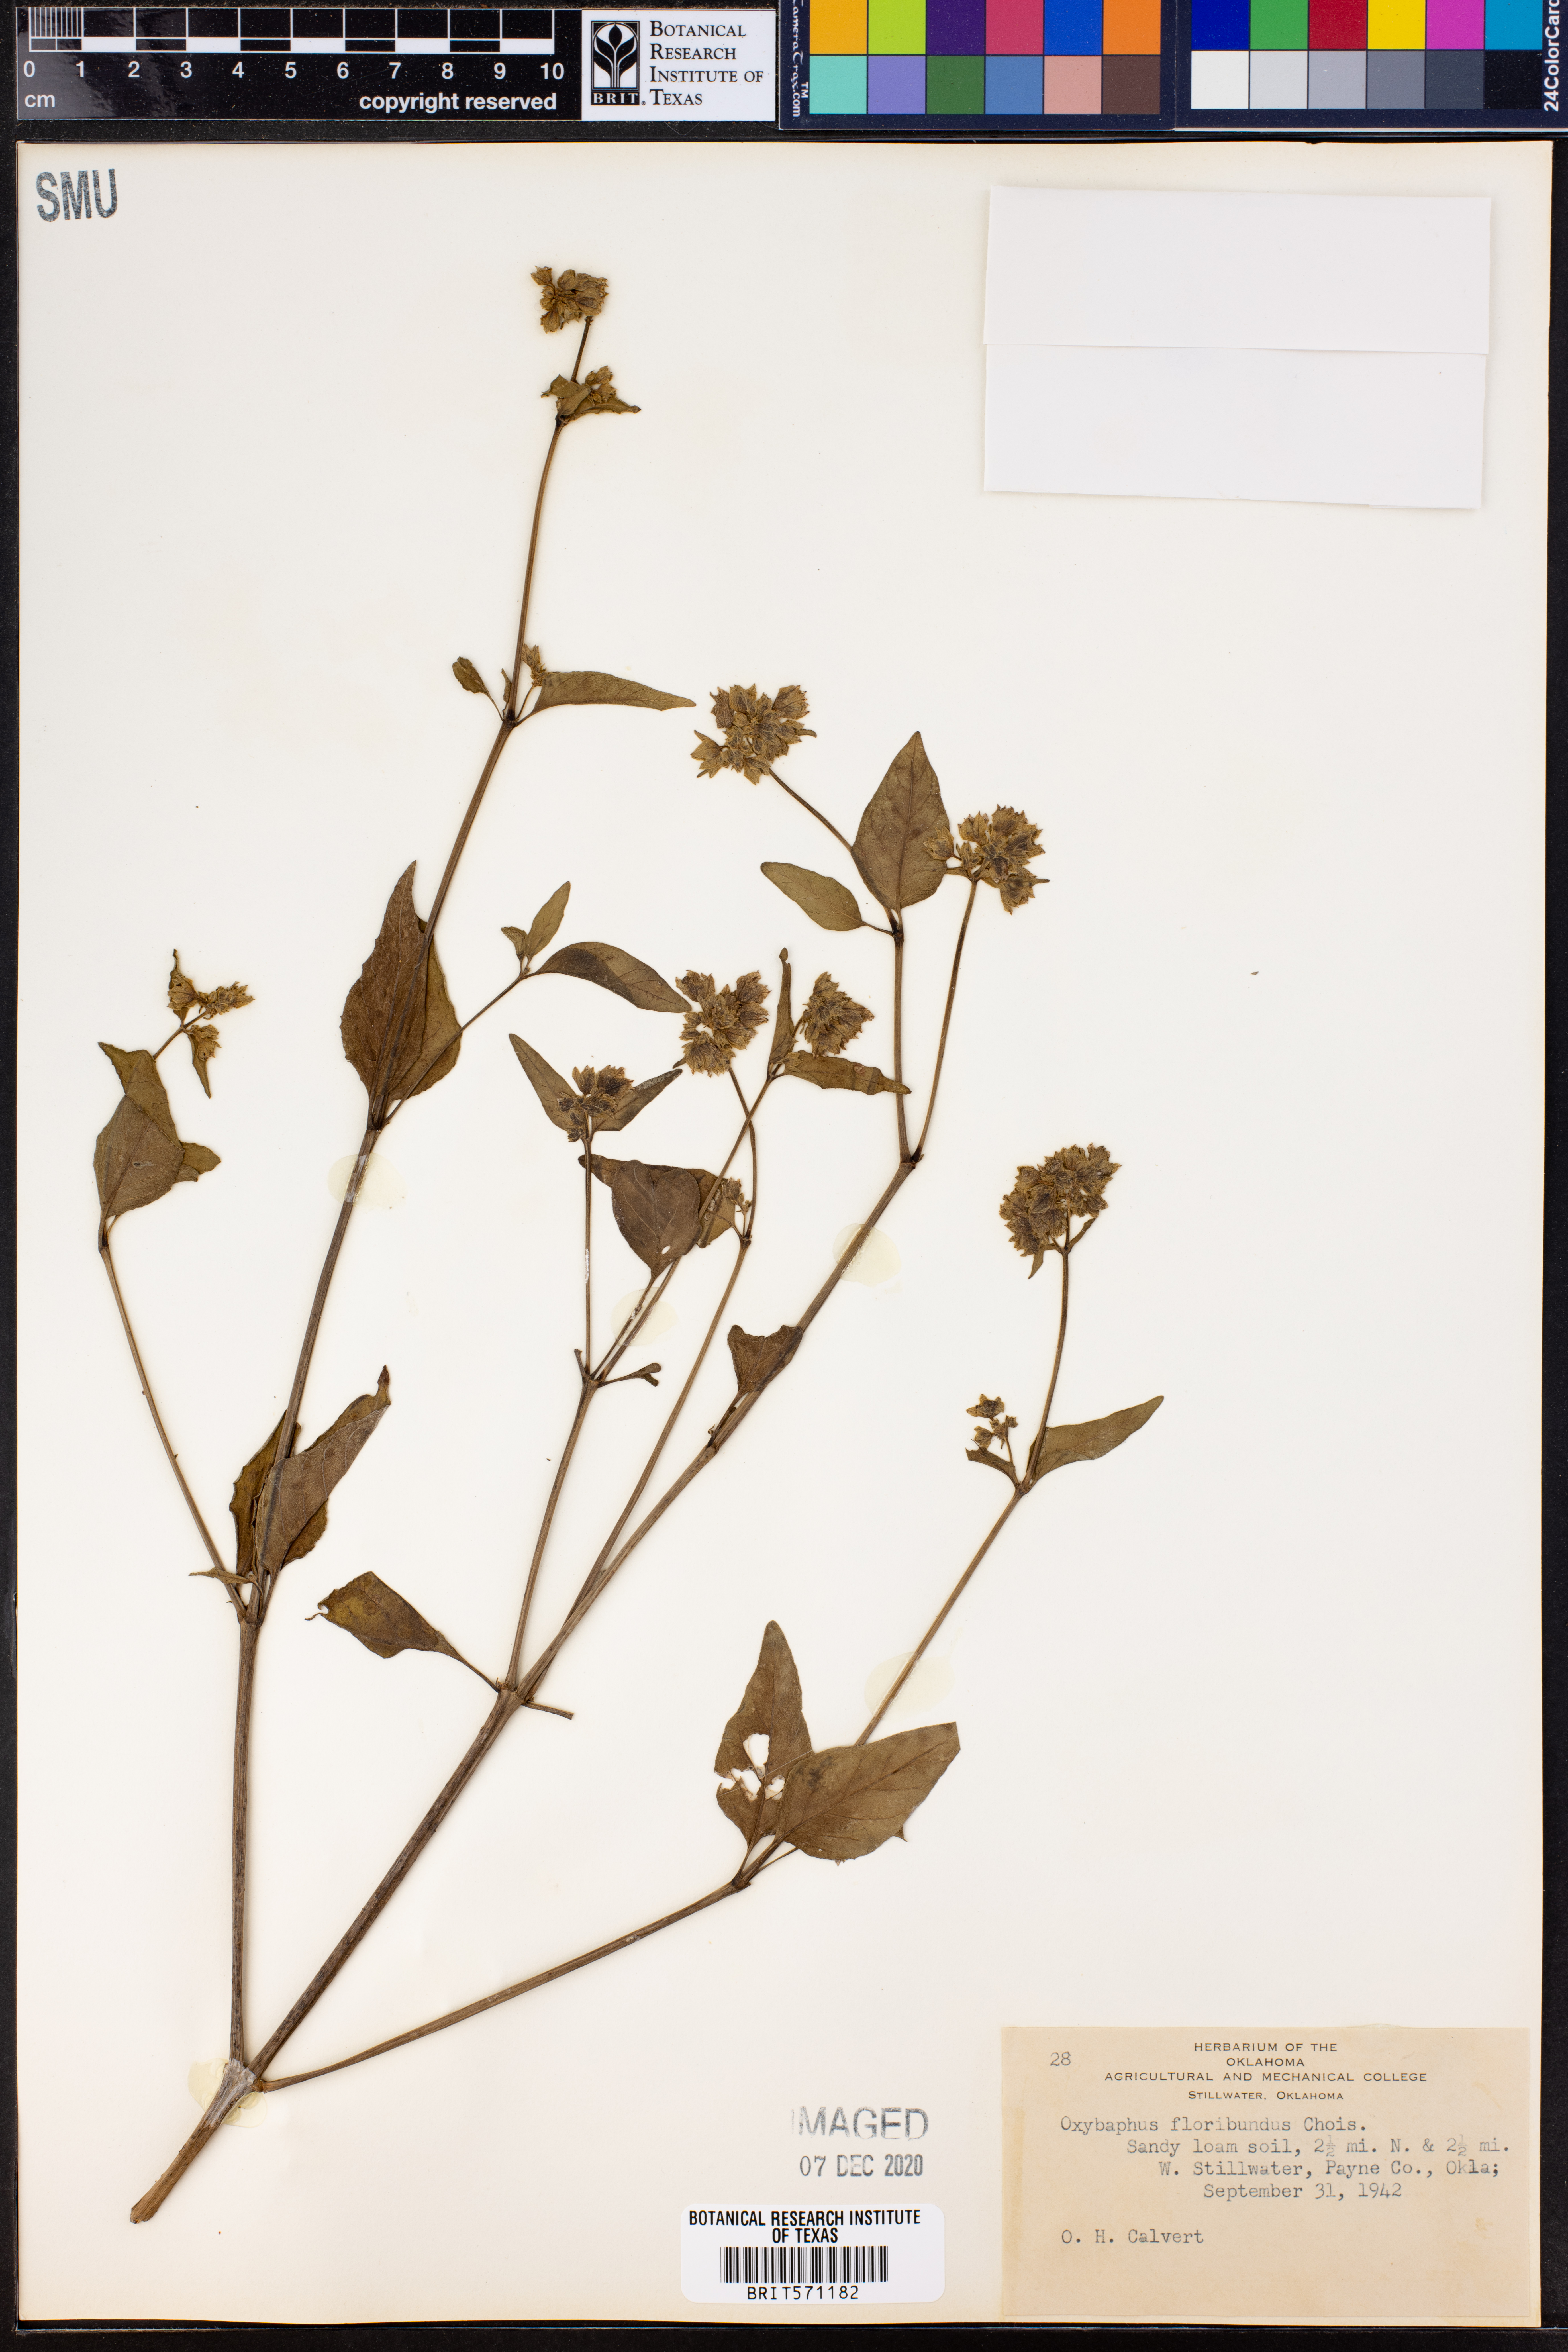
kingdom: Plantae
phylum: Tracheophyta
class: Magnoliopsida
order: Caryophyllales
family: Nyctaginaceae
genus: Mirabilis
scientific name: Mirabilis ovata
